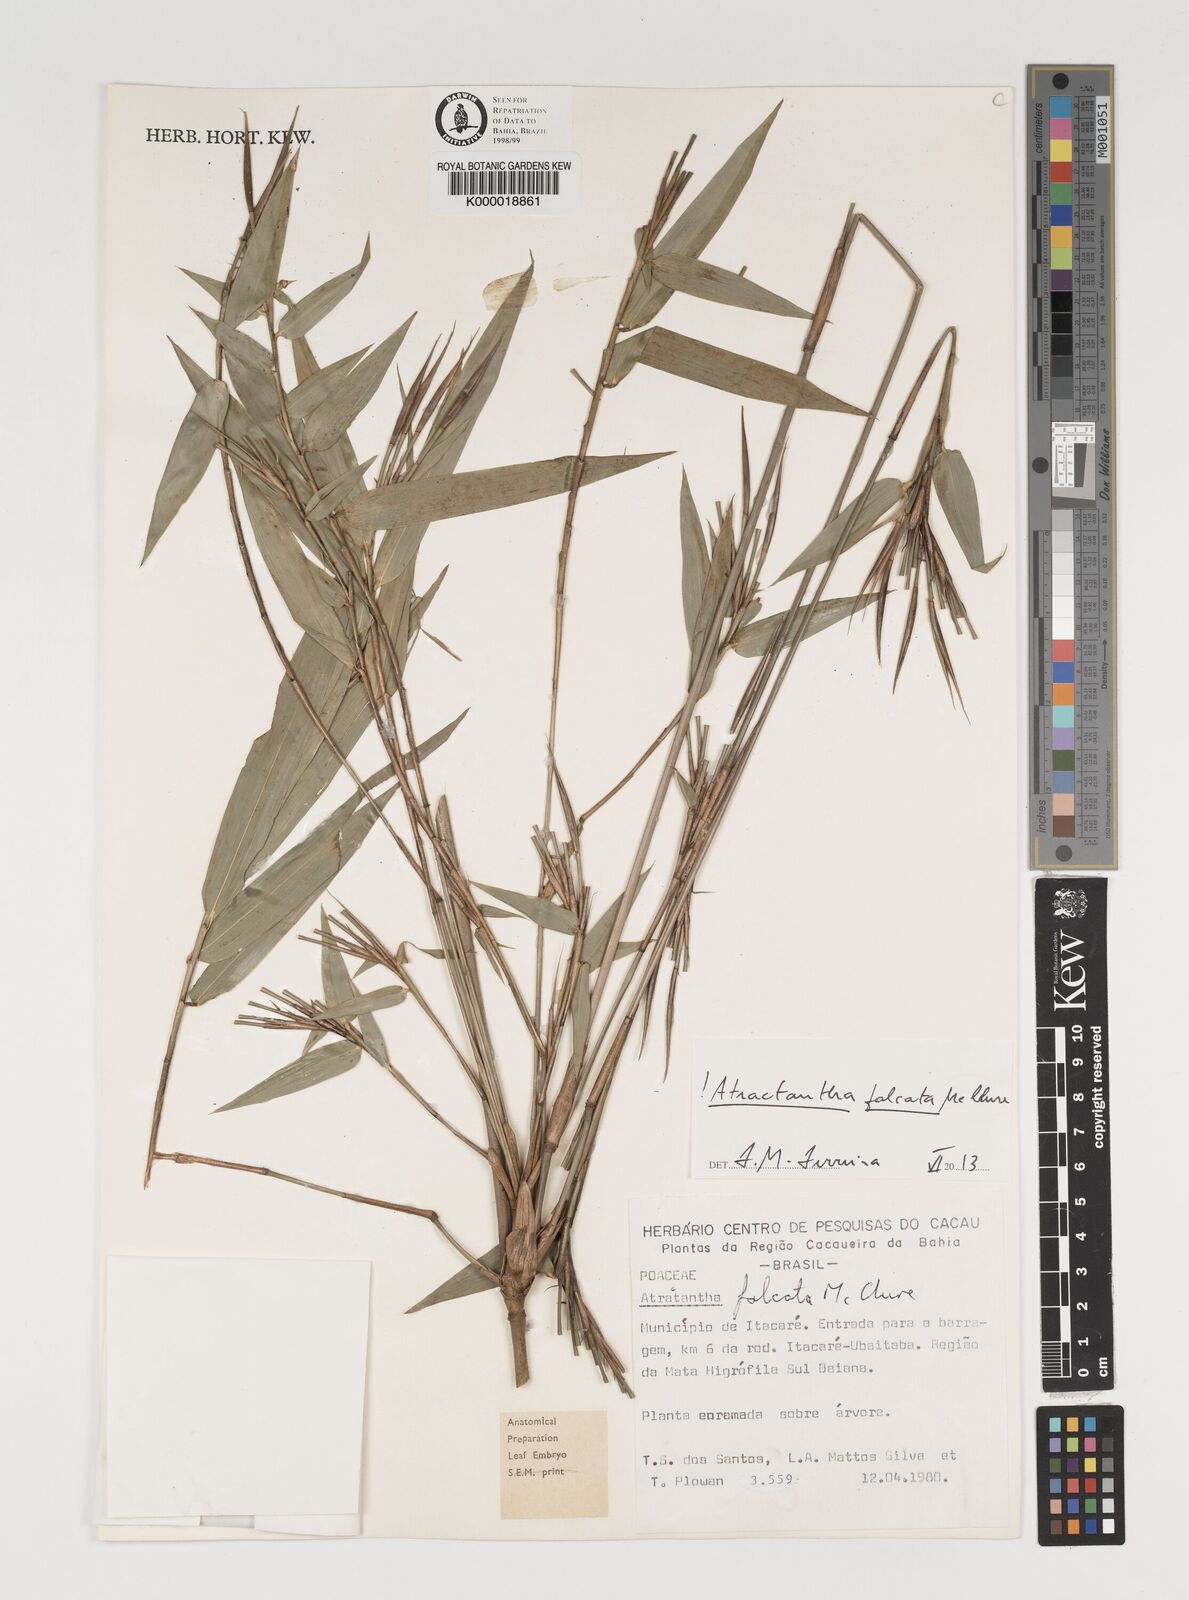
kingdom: Plantae
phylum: Tracheophyta
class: Liliopsida
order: Poales
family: Poaceae
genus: Atractantha
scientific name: Atractantha falcata
